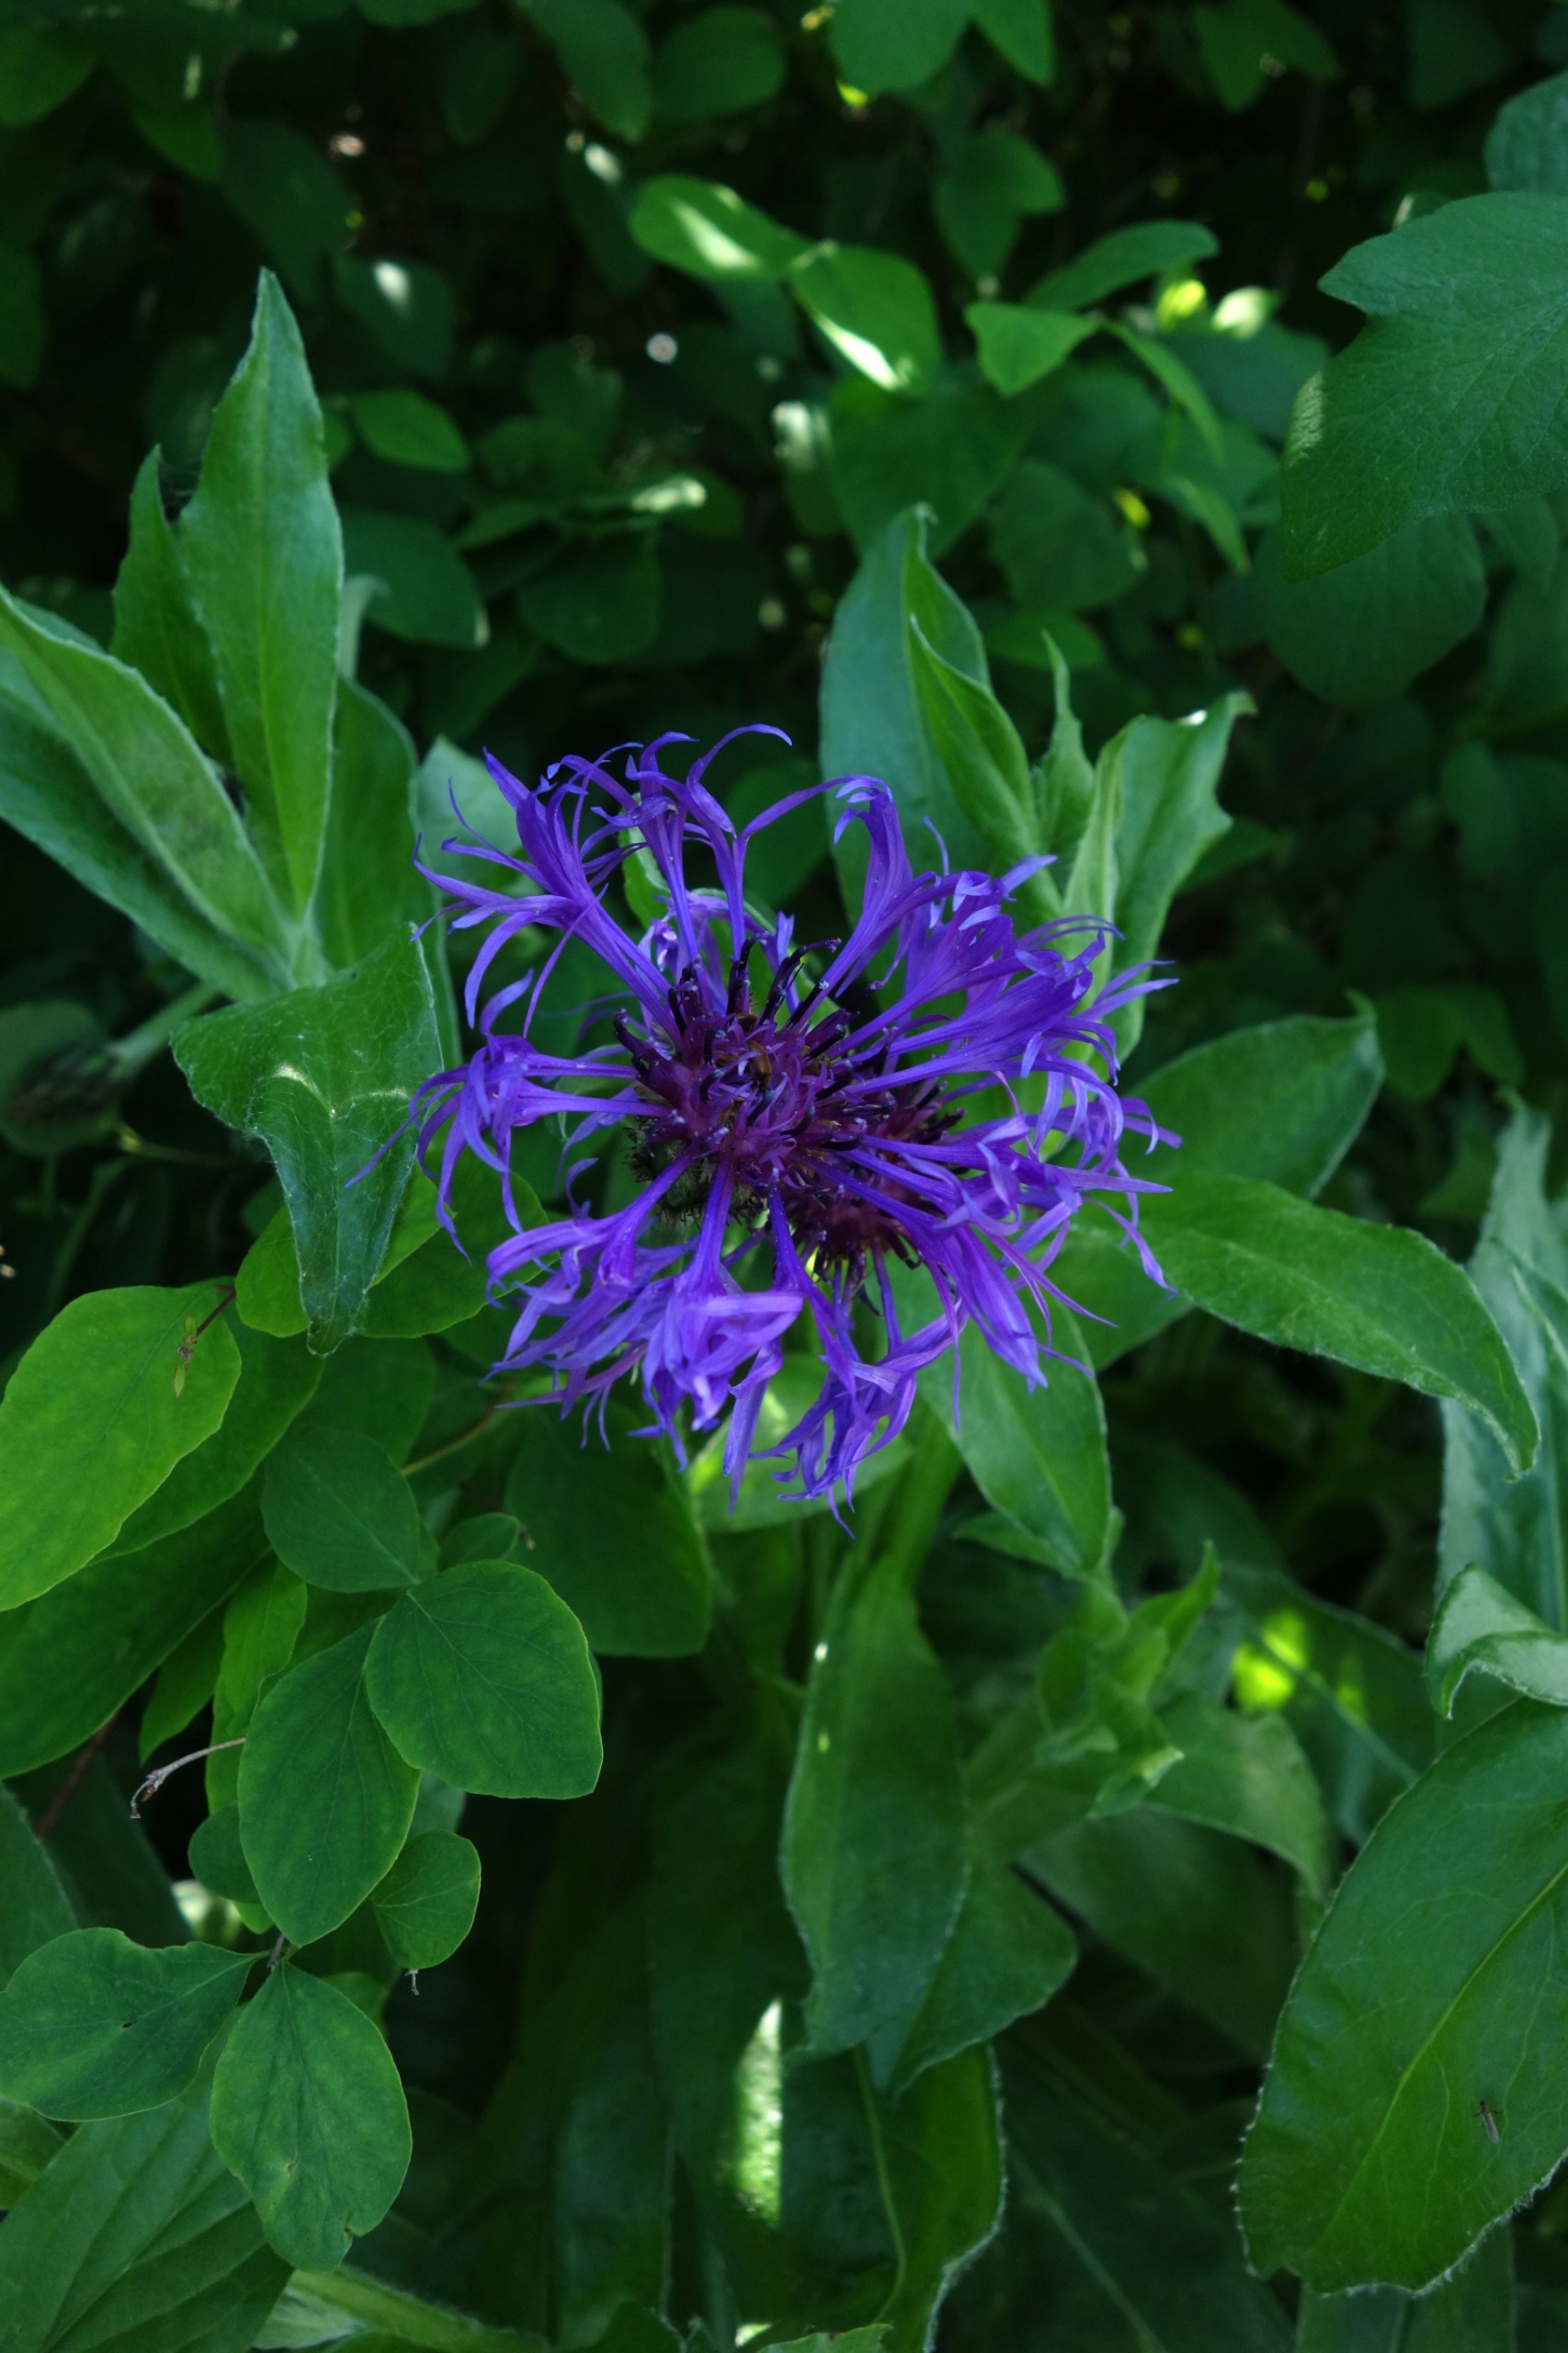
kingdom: Plantae
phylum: Tracheophyta
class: Magnoliopsida
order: Asterales
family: Asteraceae
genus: Centaurea
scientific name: Centaurea montana
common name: Bjerg-knopurt
